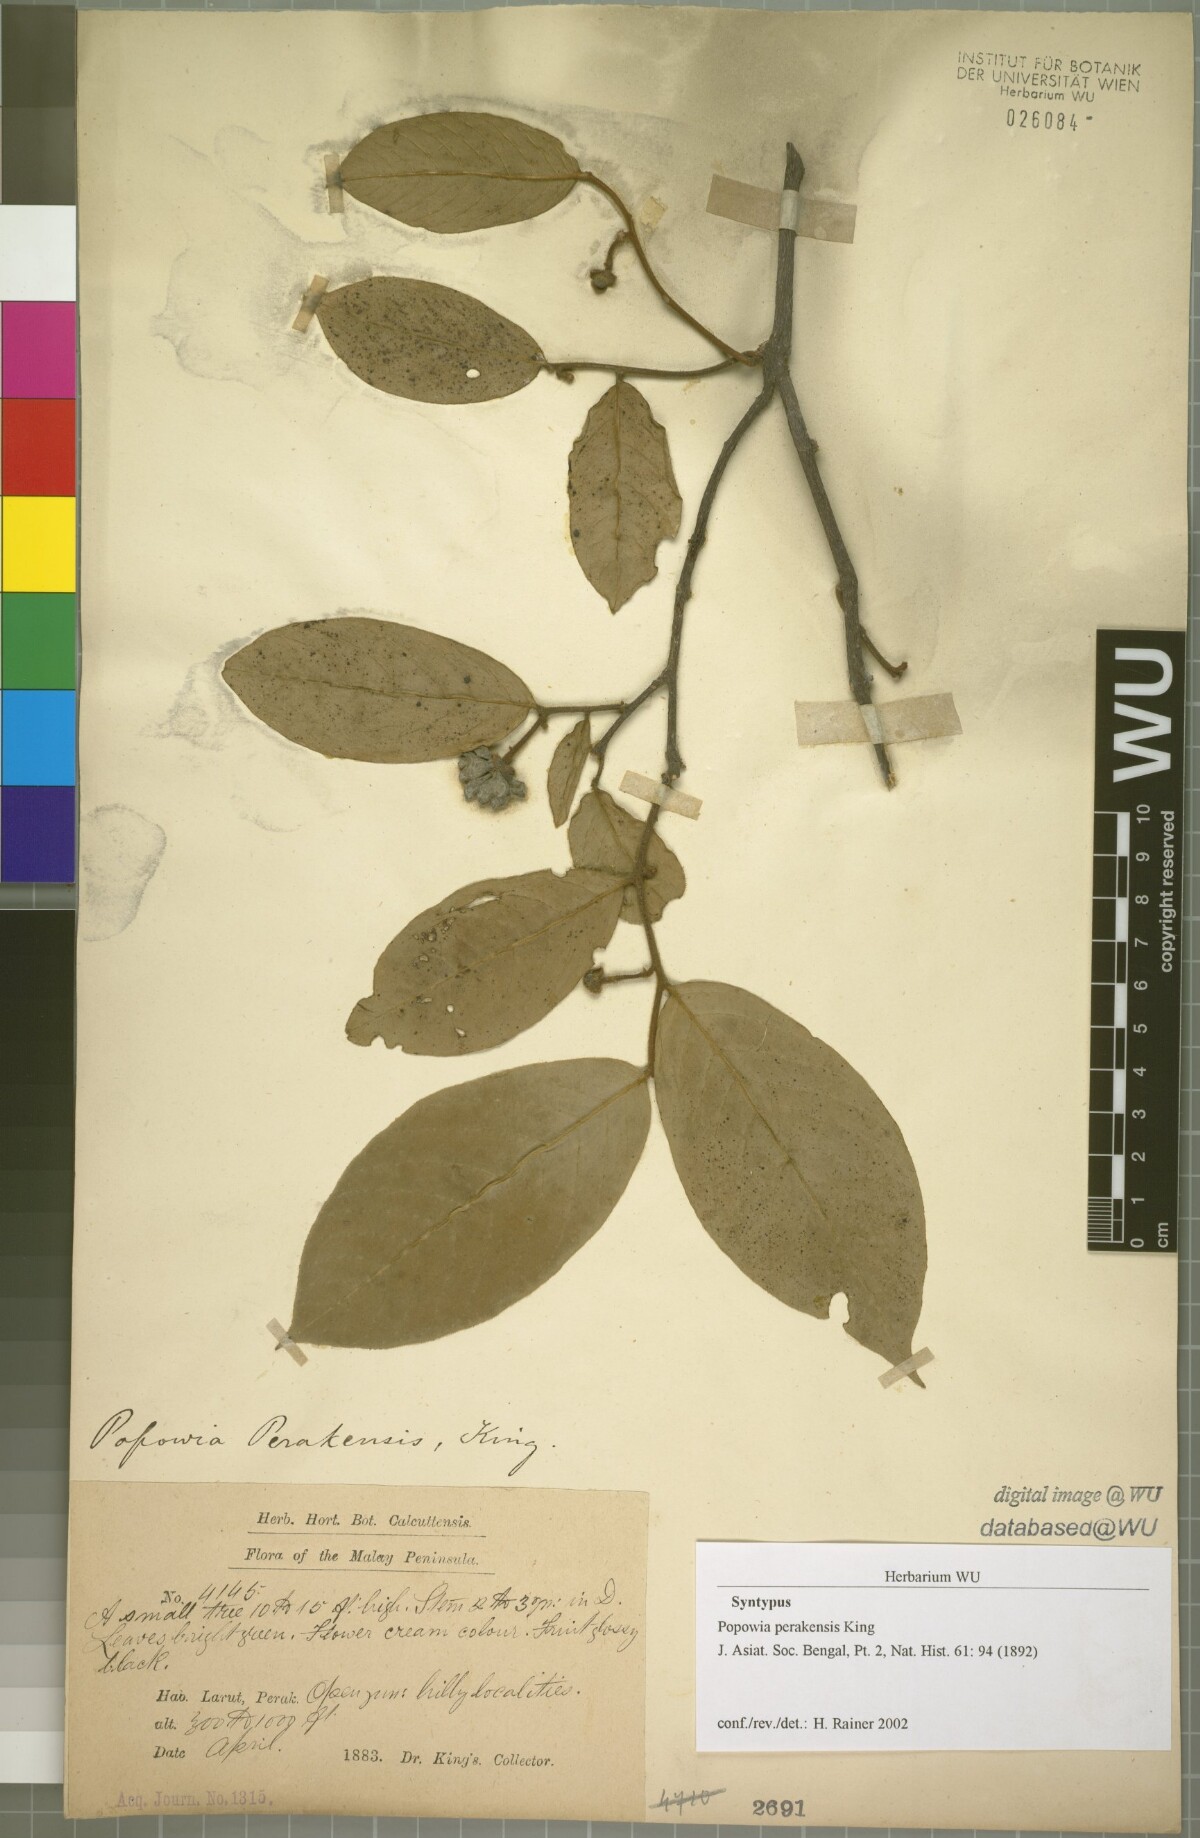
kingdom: Plantae
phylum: Tracheophyta
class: Magnoliopsida
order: Magnoliales
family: Annonaceae
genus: Popowia
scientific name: Popowia perakensis
